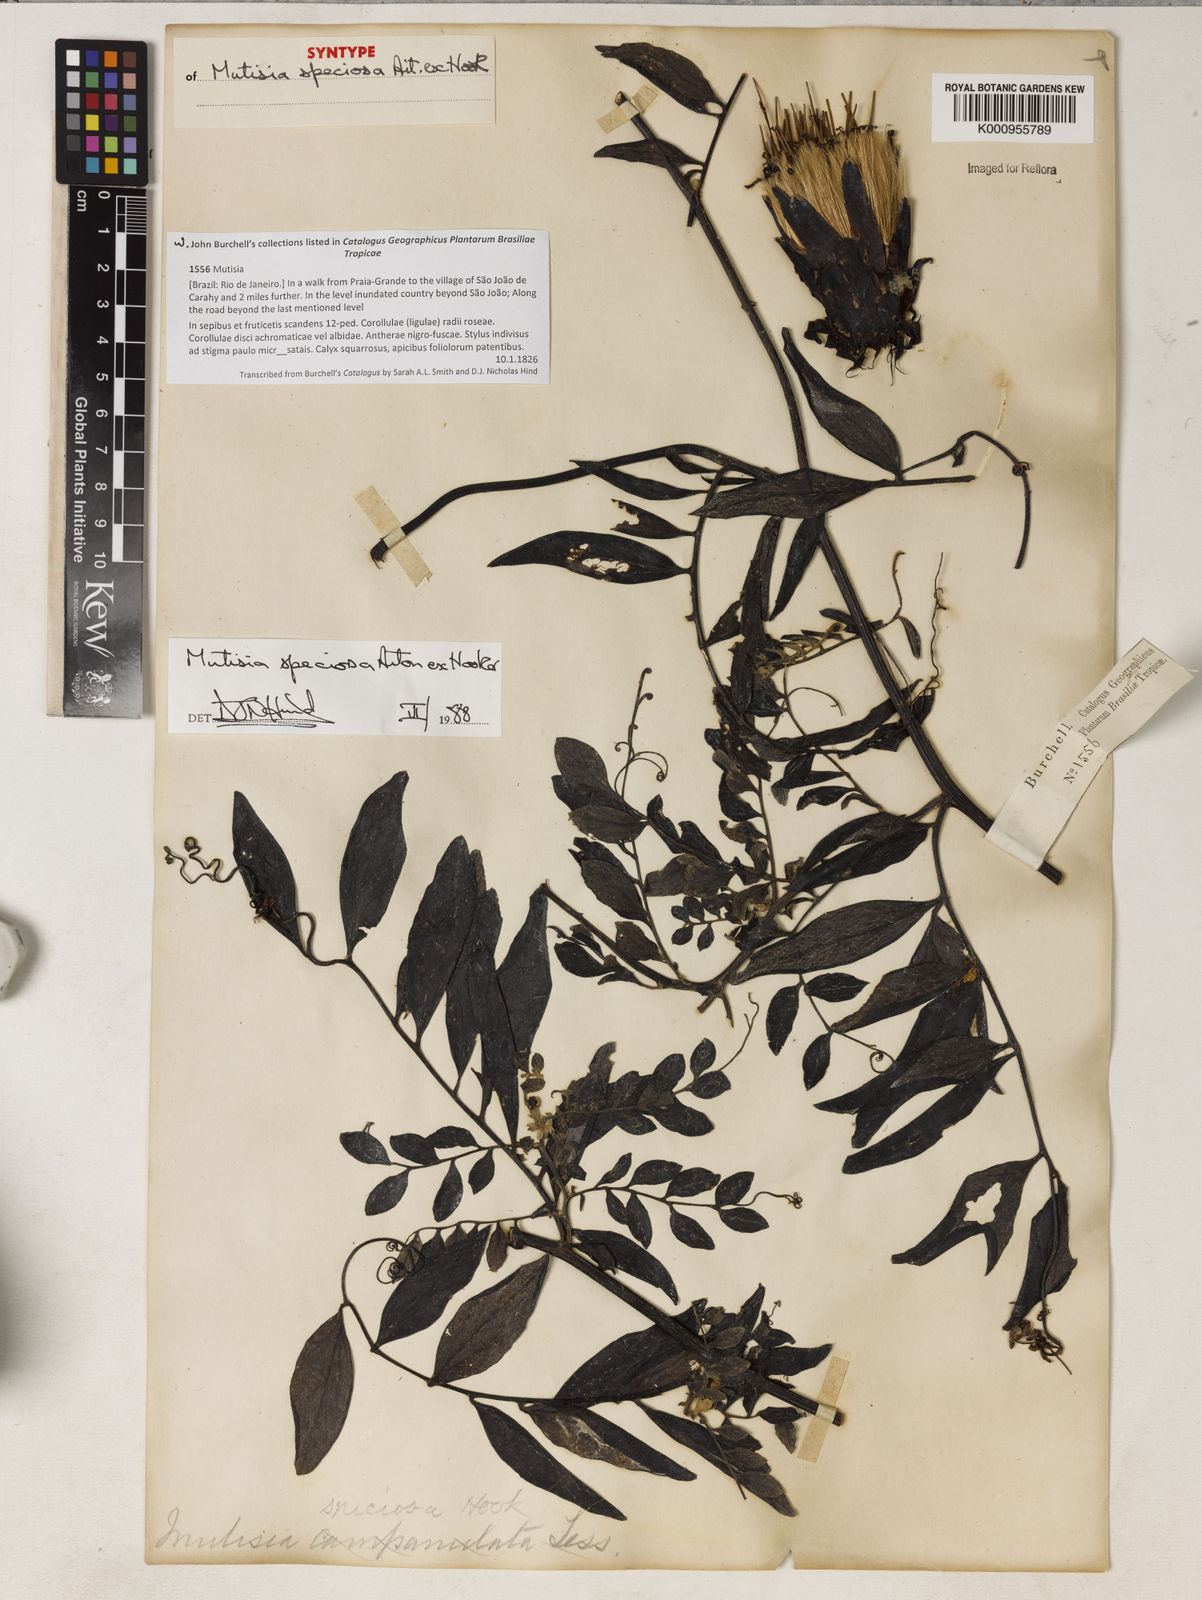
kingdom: Plantae
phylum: Tracheophyta
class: Magnoliopsida
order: Asterales
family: Asteraceae
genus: Mutisia
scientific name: Mutisia speciosa
